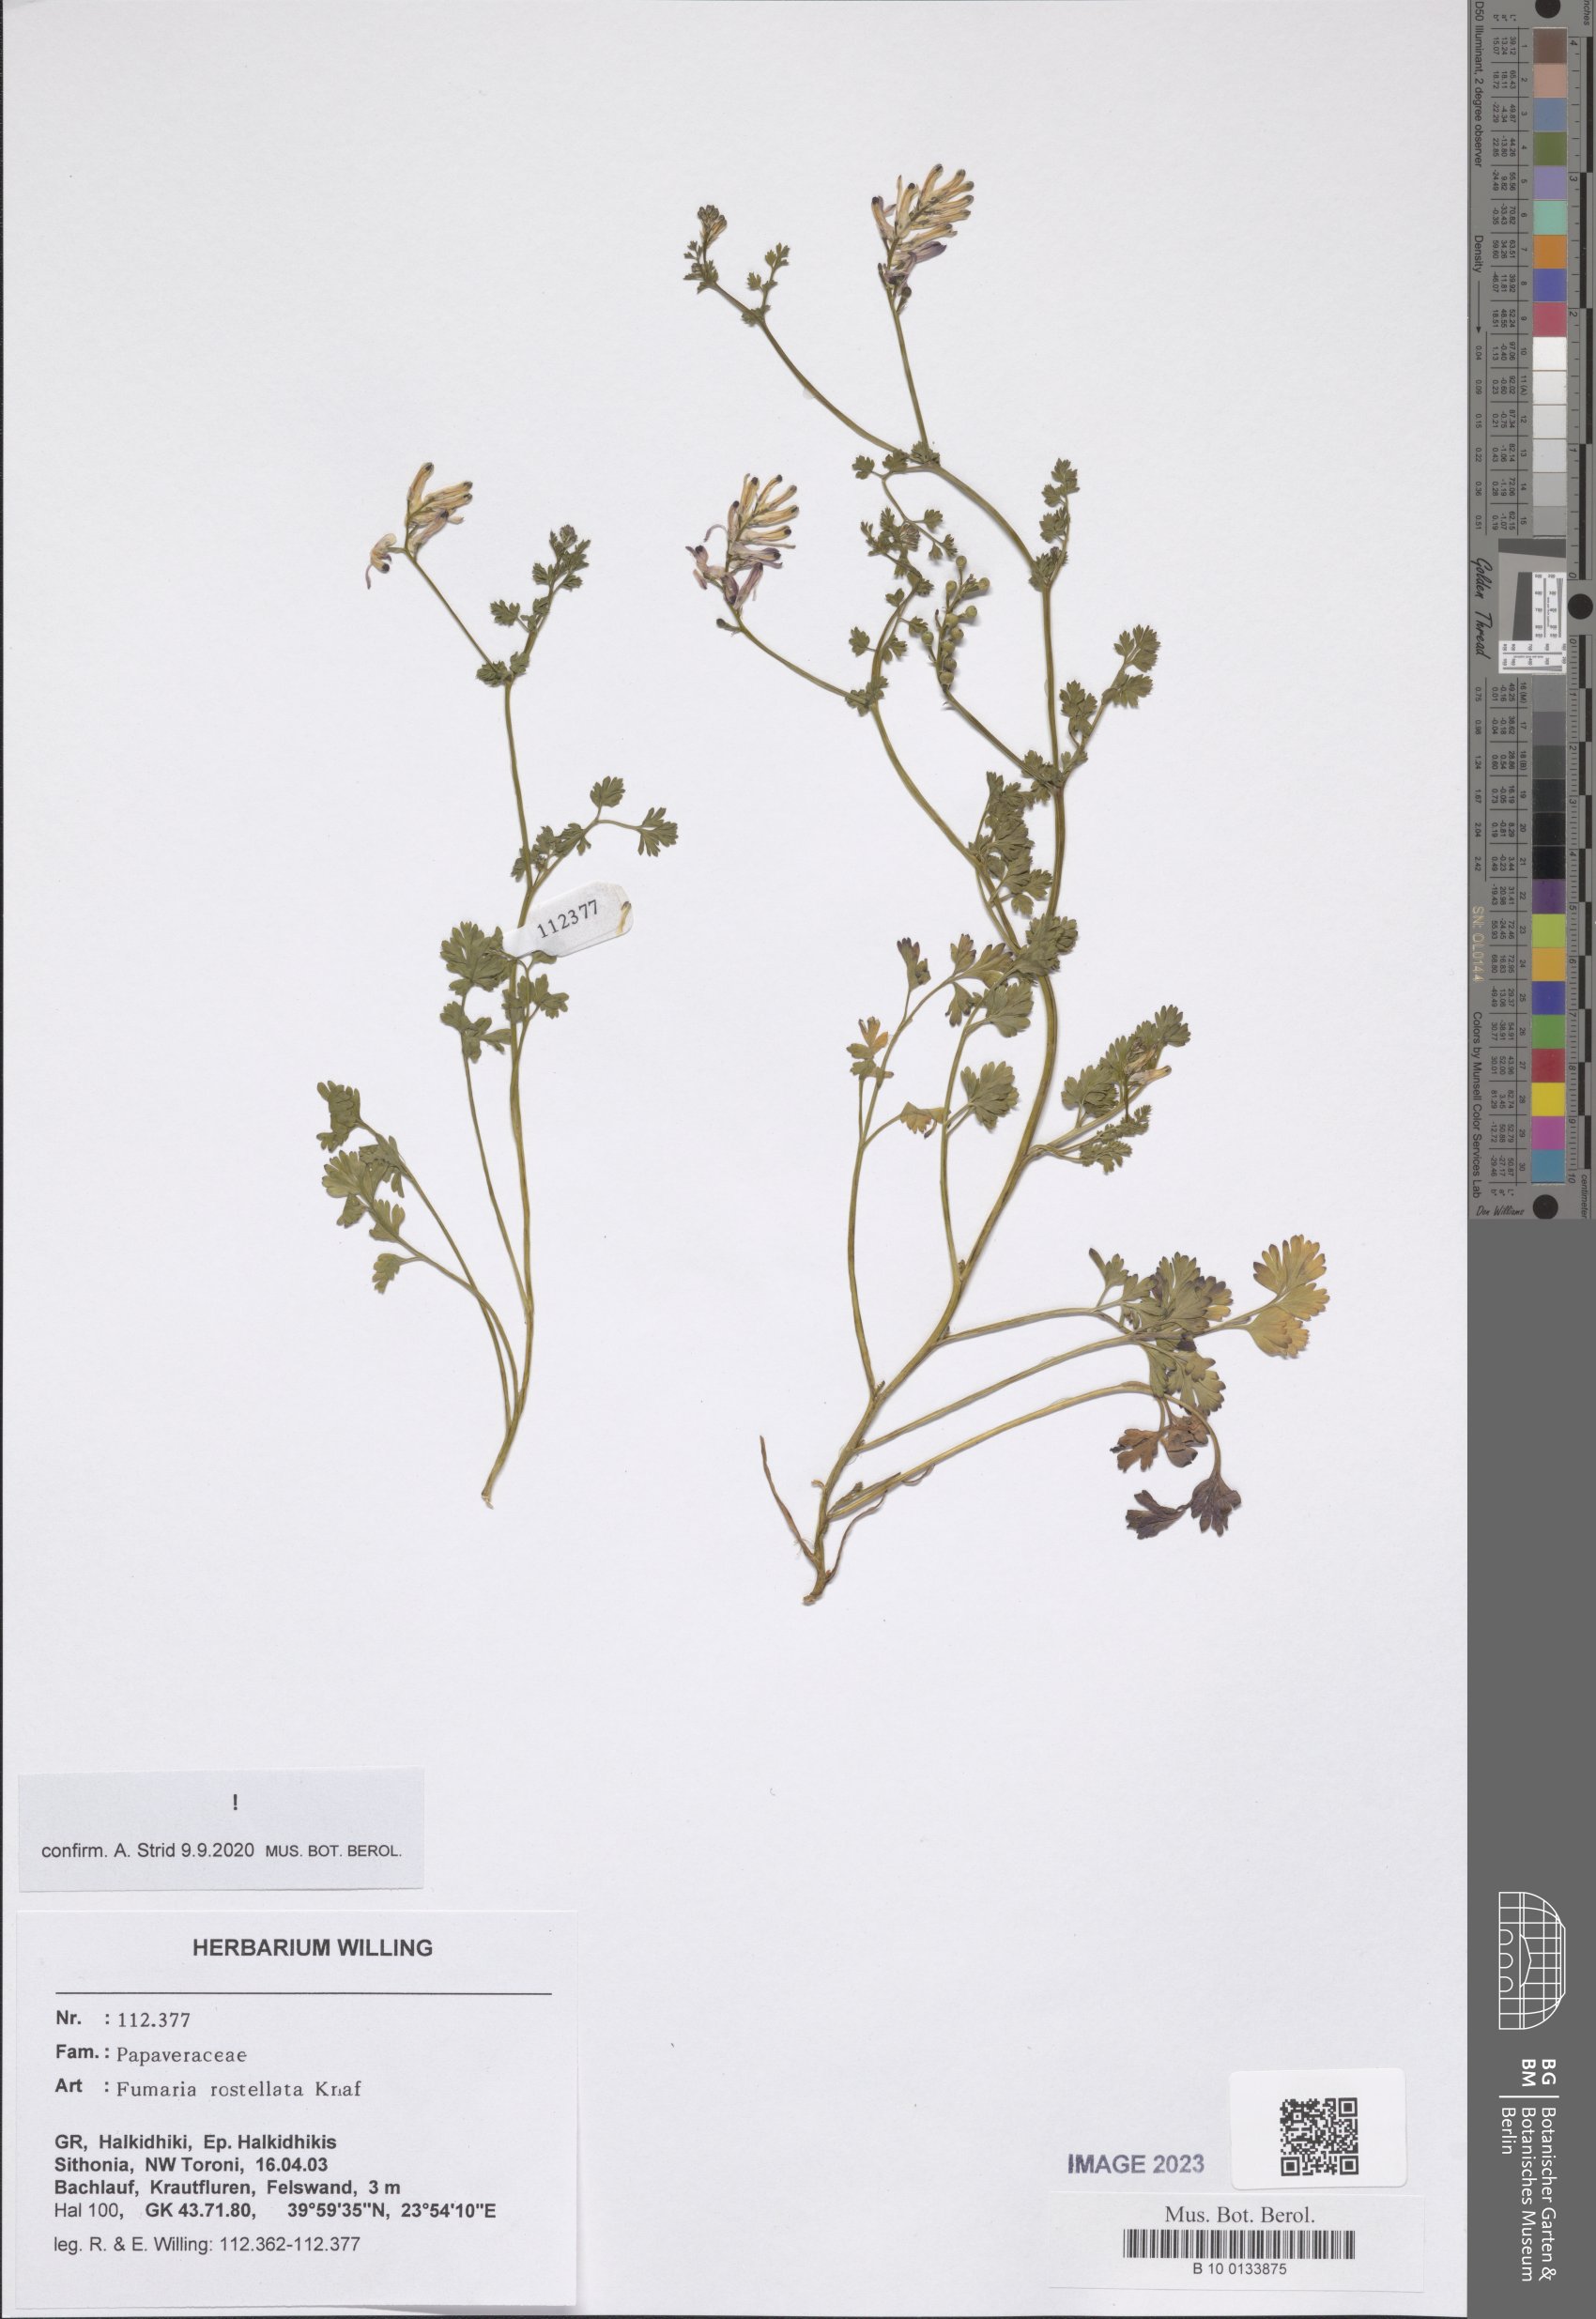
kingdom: Plantae
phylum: Tracheophyta
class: Magnoliopsida
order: Ranunculales
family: Papaveraceae
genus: Fumaria
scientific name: Fumaria rostellata
